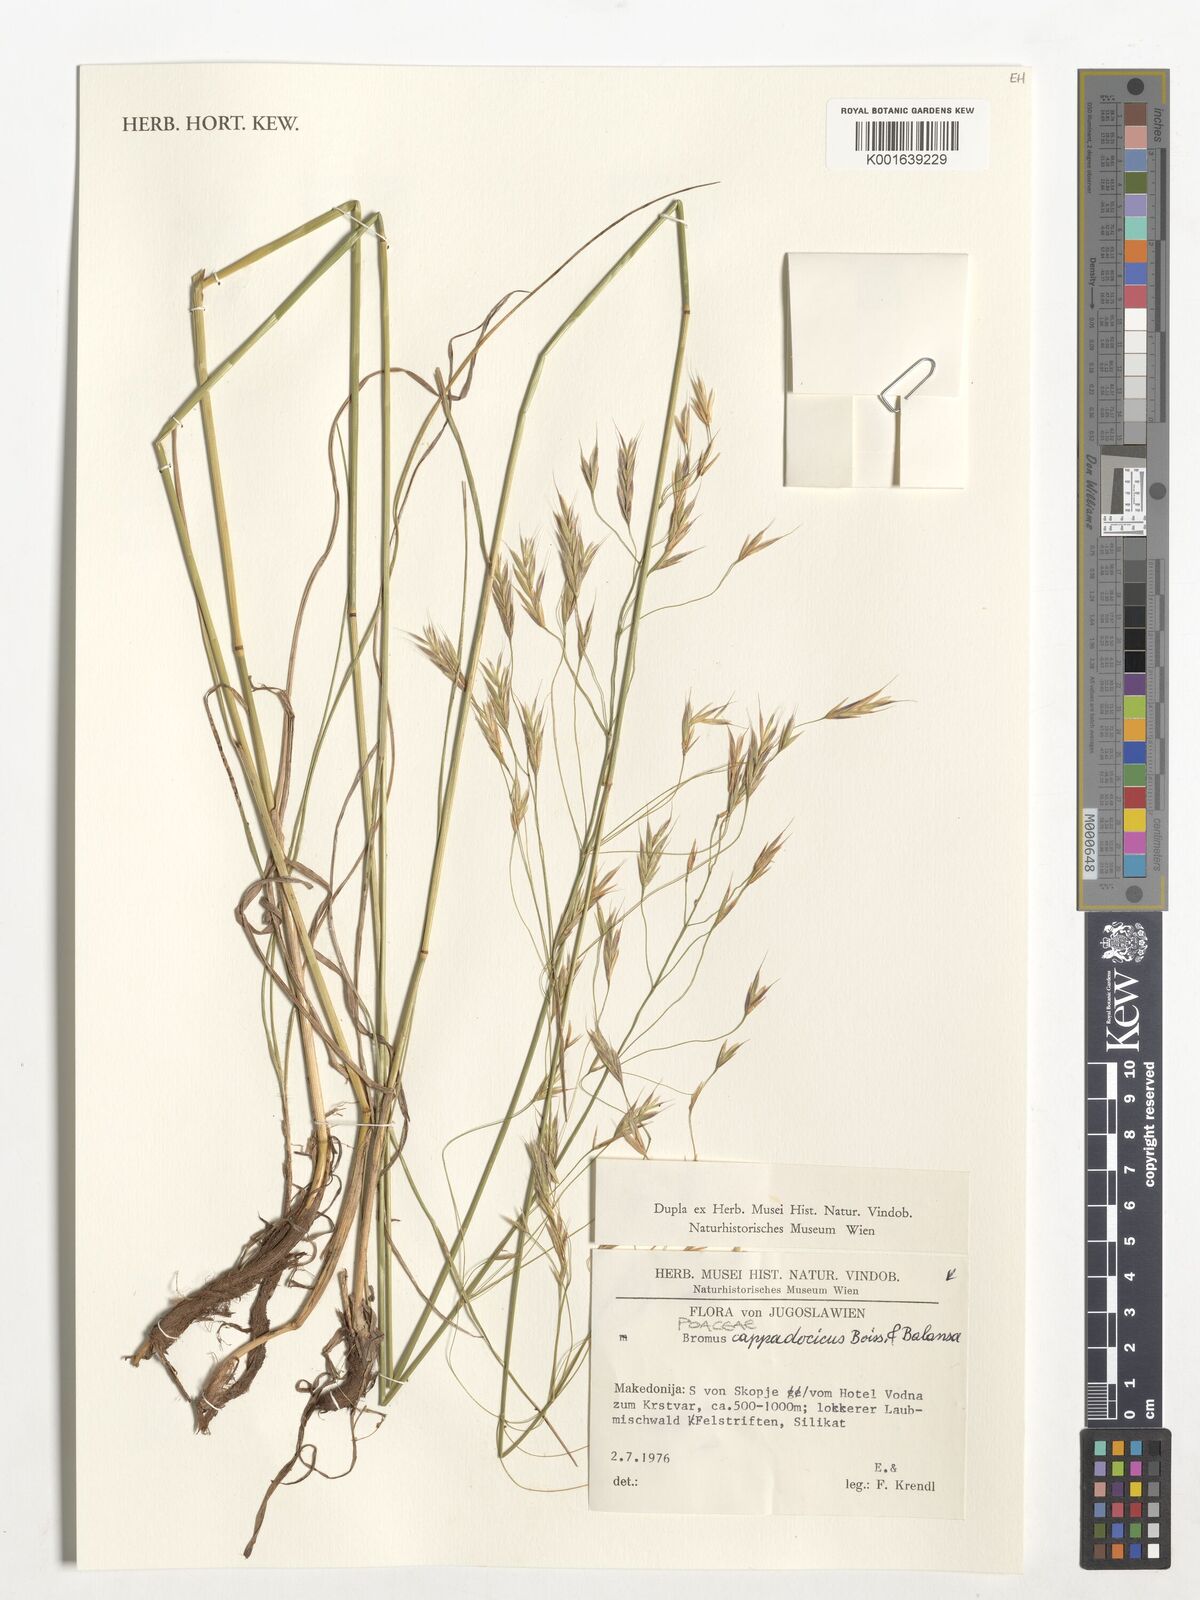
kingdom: Plantae
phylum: Tracheophyta
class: Liliopsida
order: Poales
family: Poaceae
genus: Bromus
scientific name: Bromus sclerophyllus
